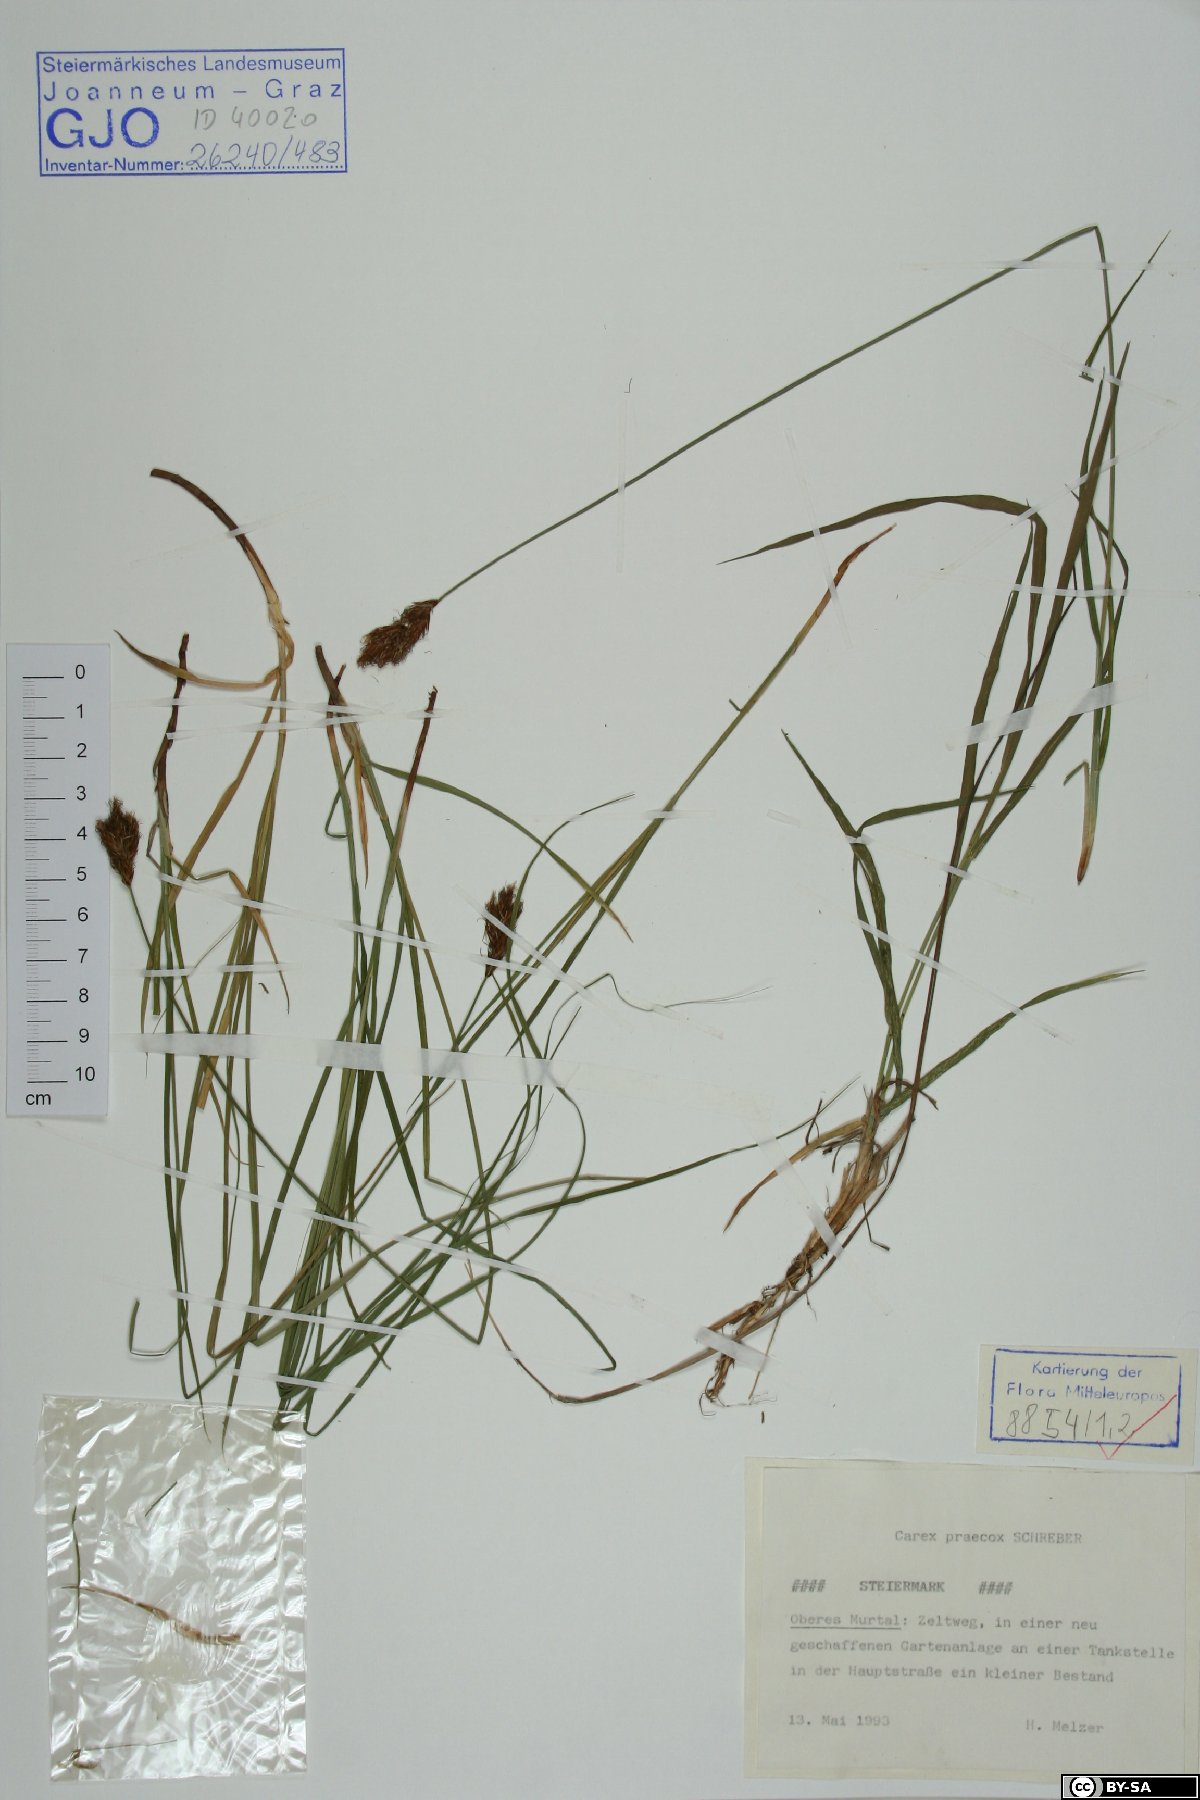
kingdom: Plantae
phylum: Tracheophyta
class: Liliopsida
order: Poales
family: Cyperaceae
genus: Carex
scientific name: Carex praecox
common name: Early sedge
